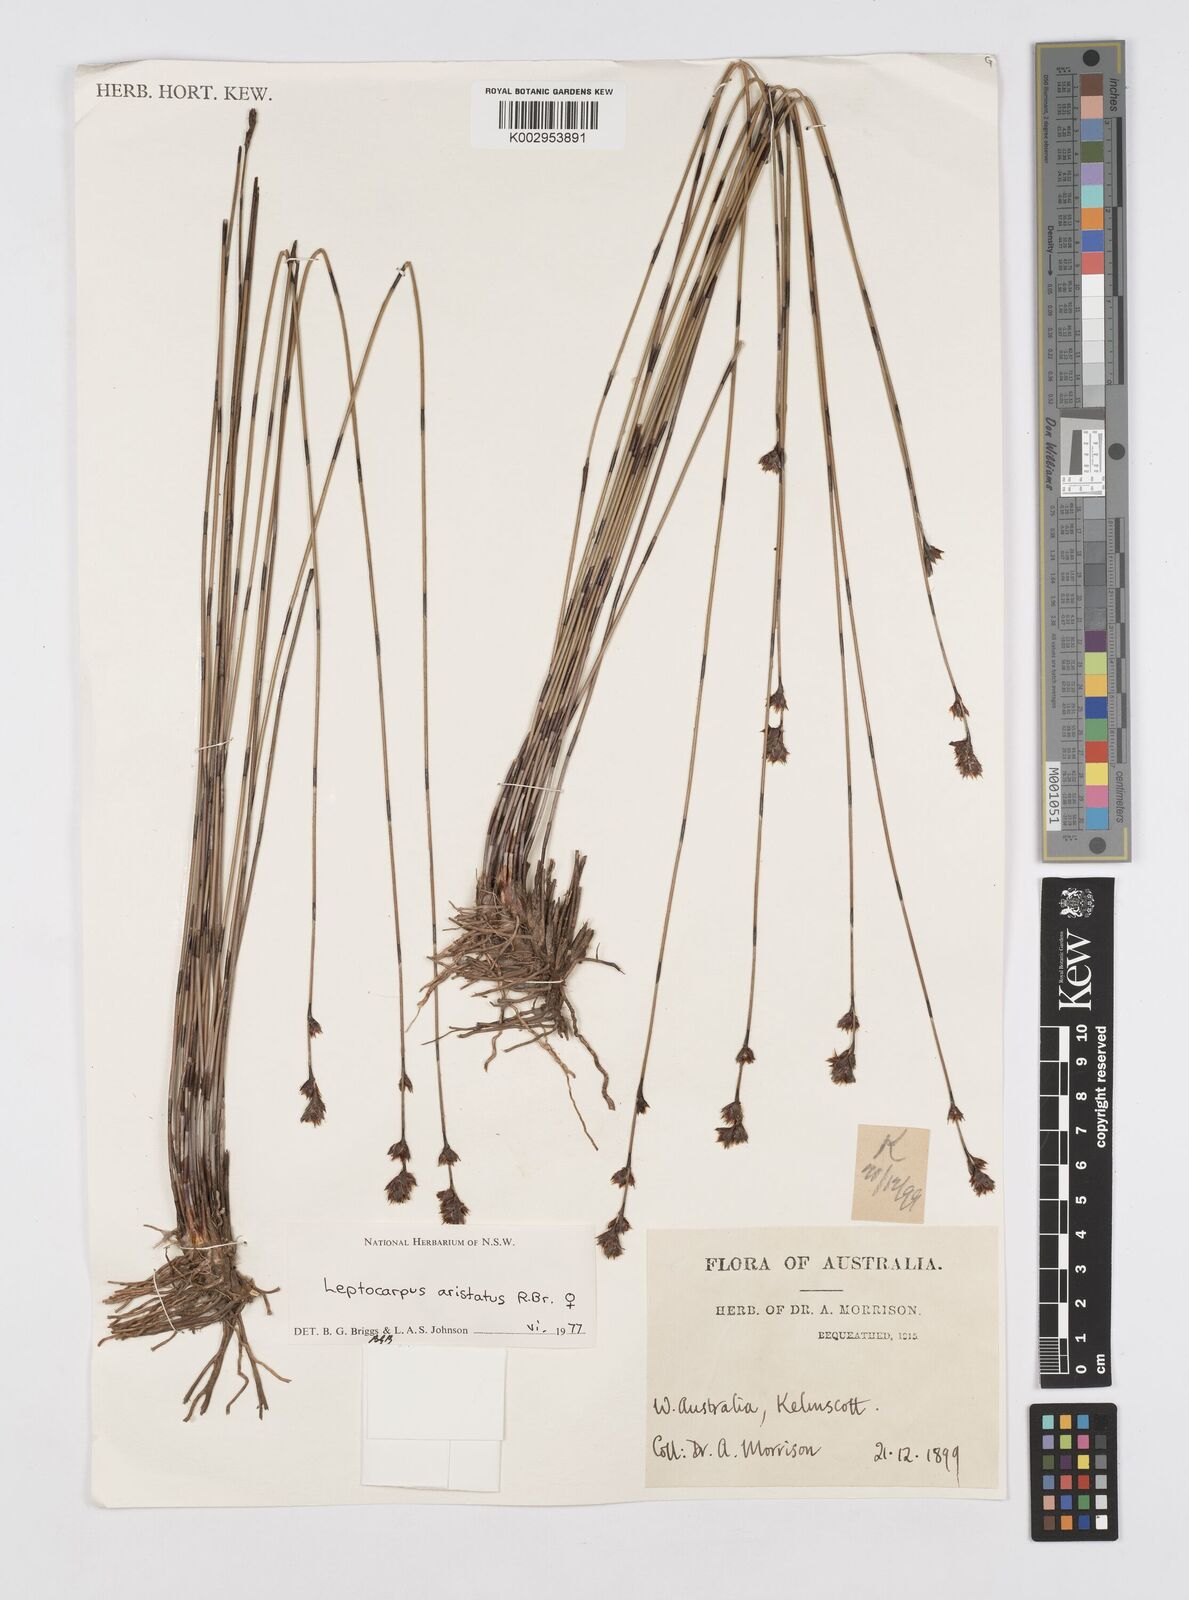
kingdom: Plantae
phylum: Tracheophyta
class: Liliopsida
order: Poales
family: Restionaceae
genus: Chaetanthus
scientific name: Chaetanthus aristatus
